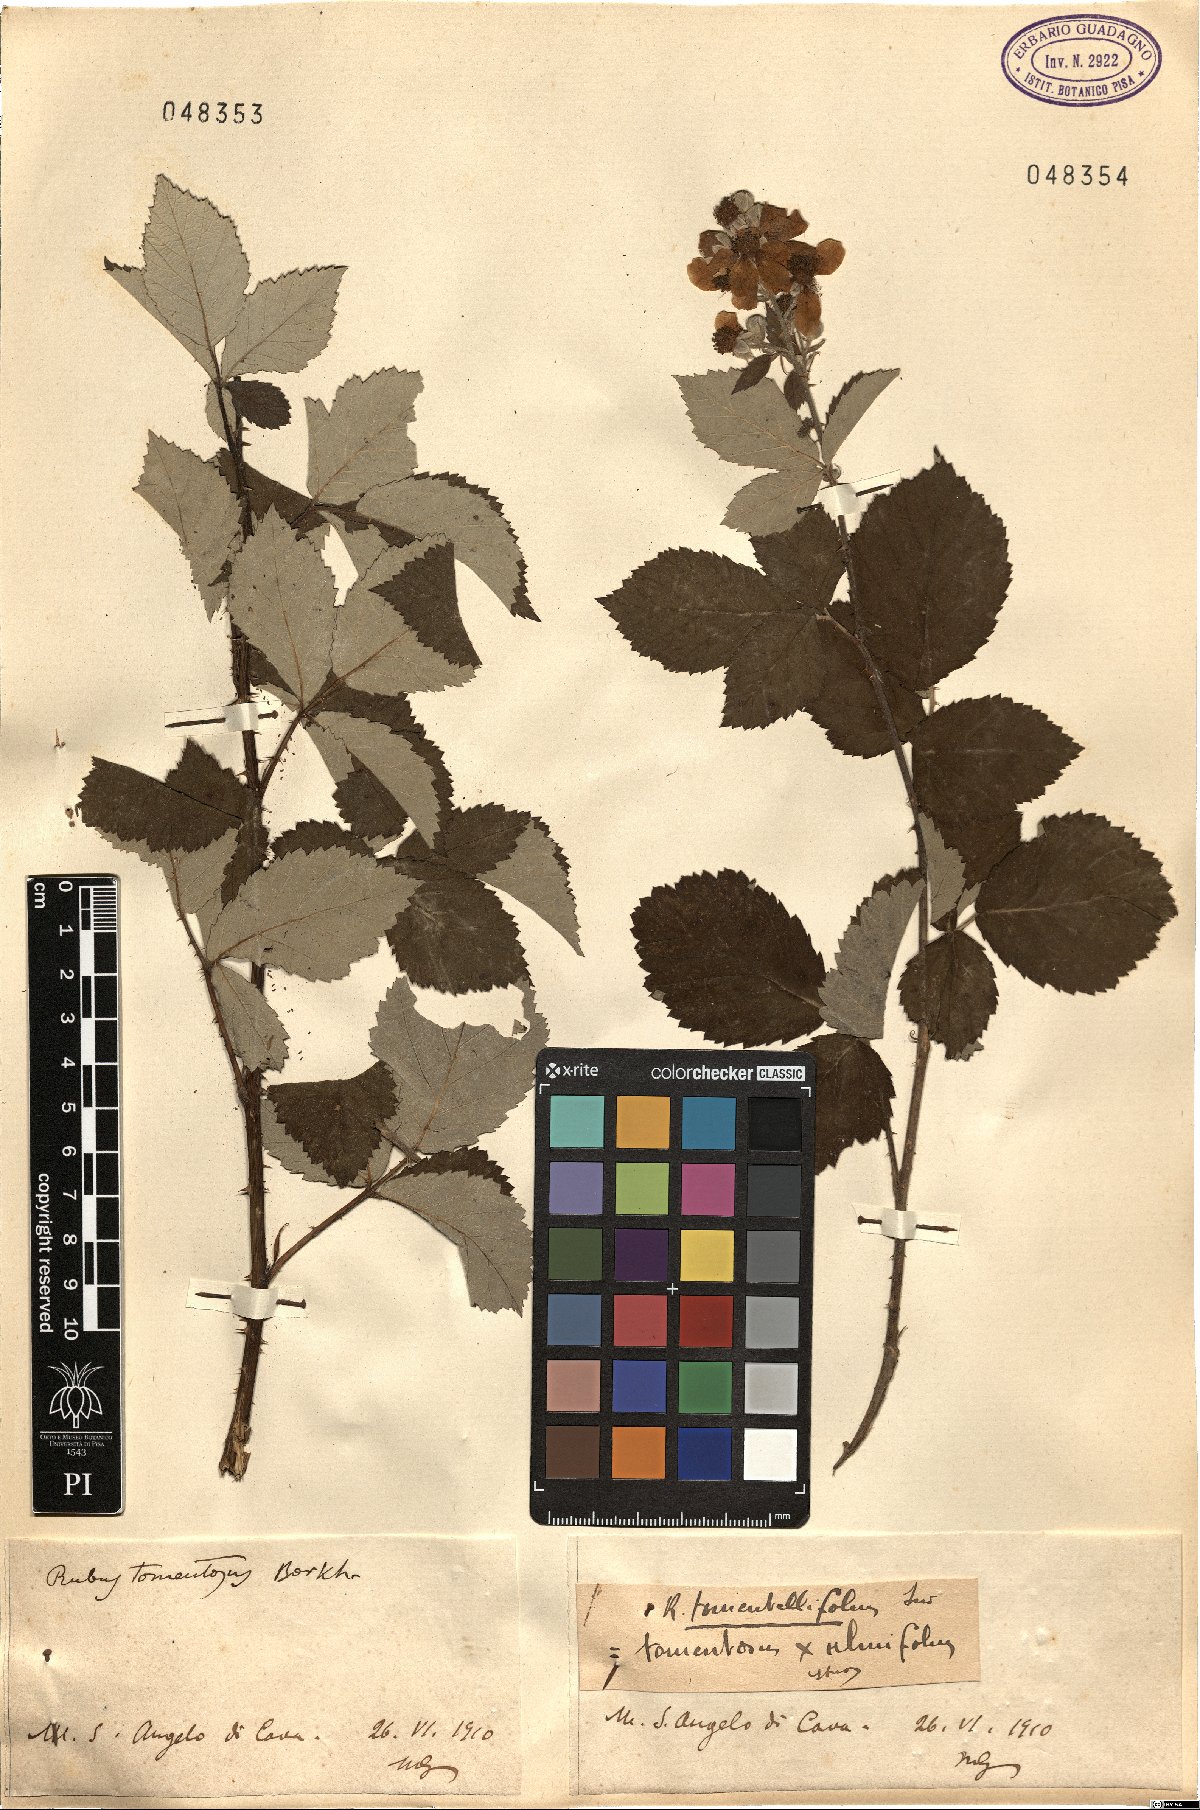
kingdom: Plantae
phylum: Tracheophyta
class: Magnoliopsida
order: Rosales
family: Rosaceae
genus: Rubus
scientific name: Rubus occidentalis
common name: Black raspberry
